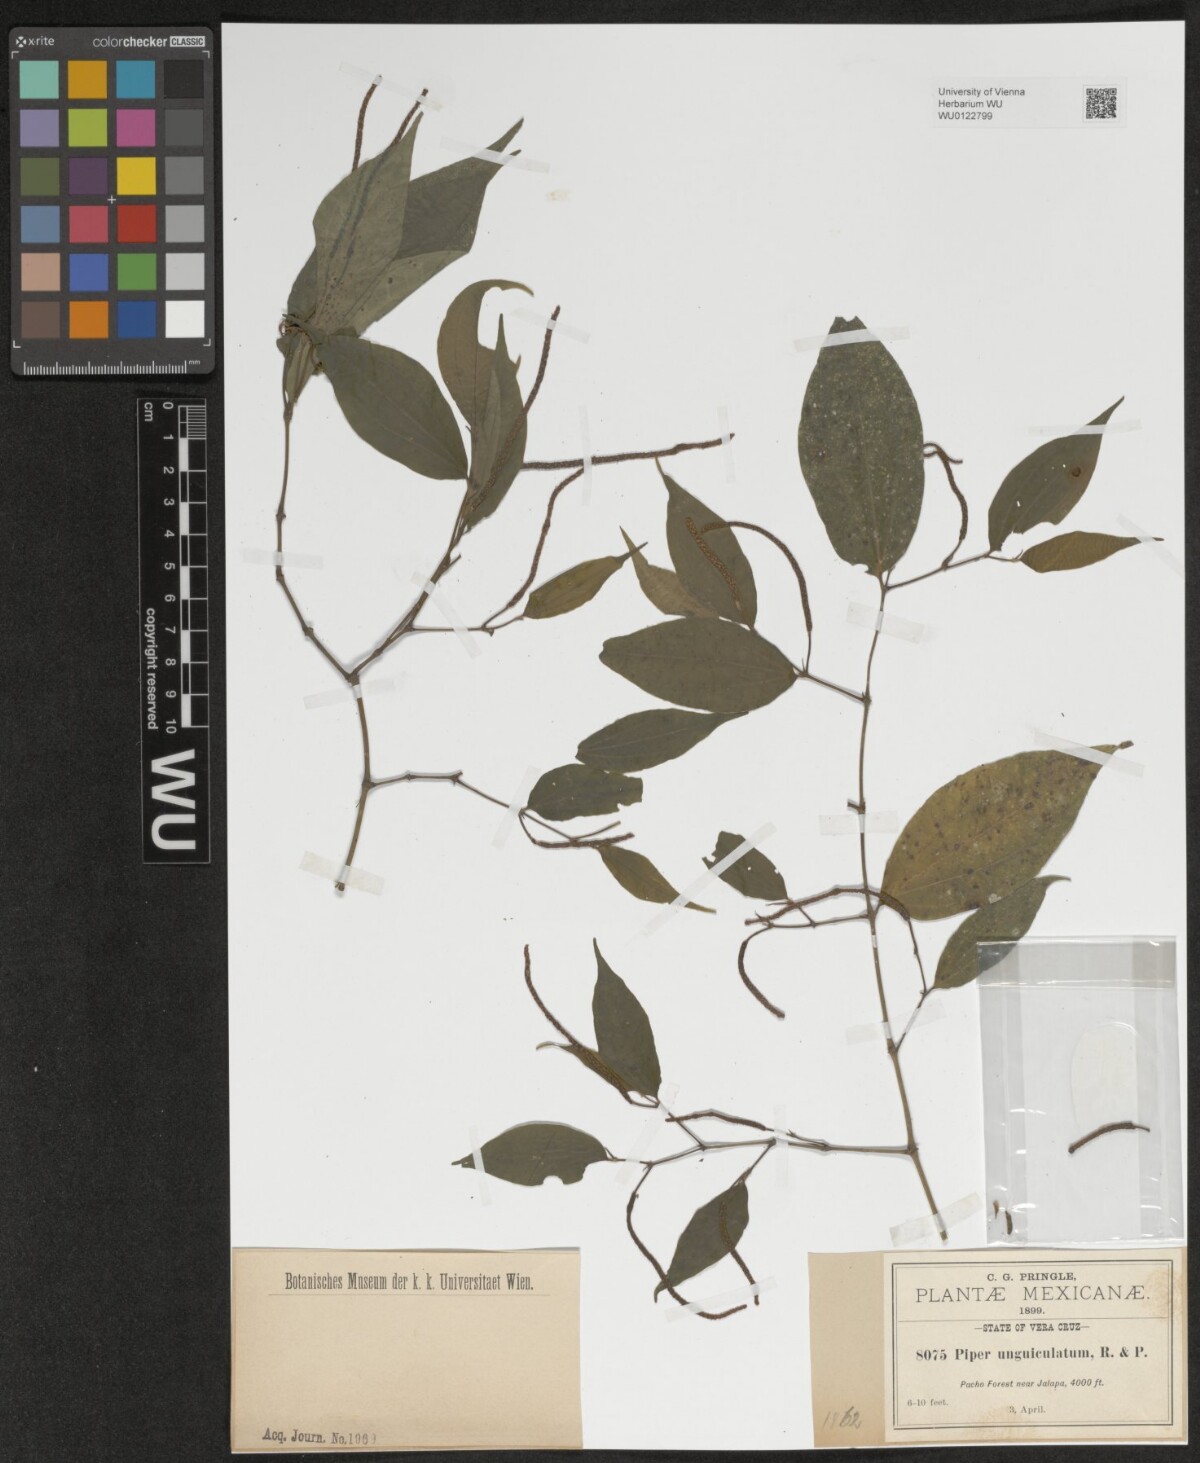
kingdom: Plantae
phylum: Tracheophyta
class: Magnoliopsida
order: Piperales
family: Piperaceae
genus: Piper
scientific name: Piper unguiculatum
